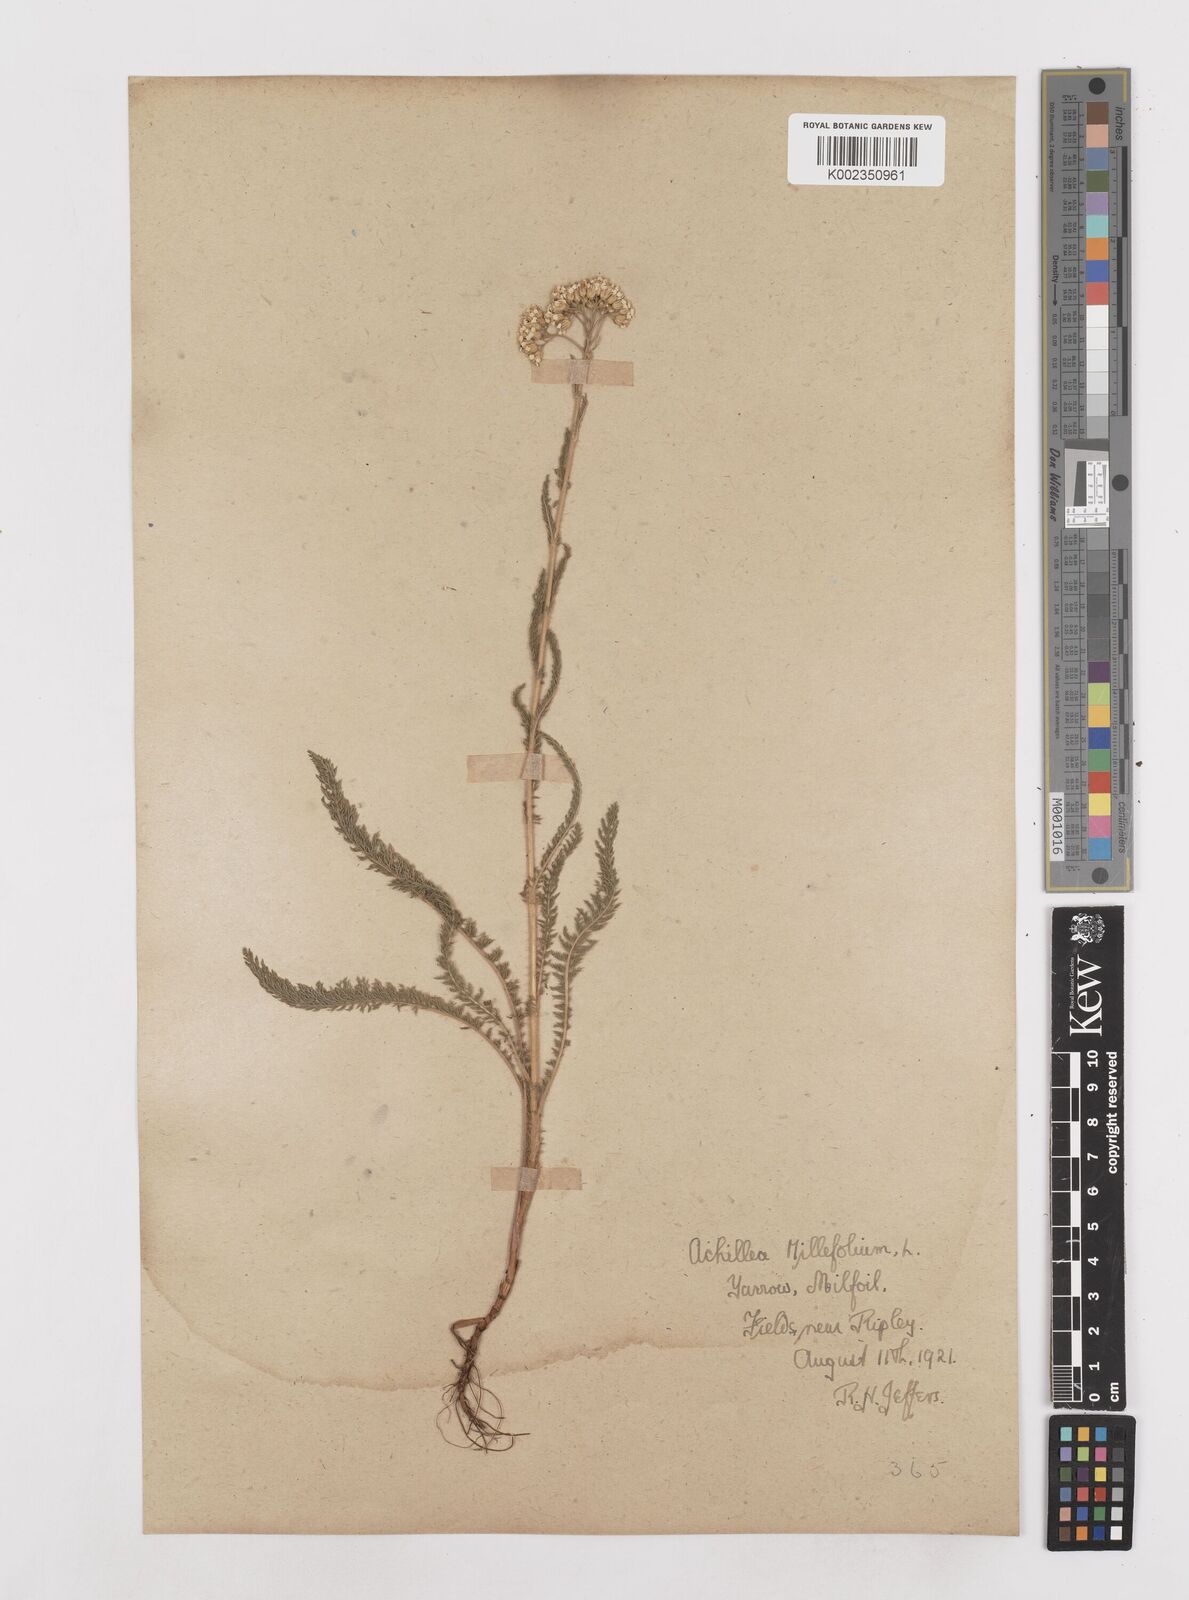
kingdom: Plantae
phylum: Tracheophyta
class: Magnoliopsida
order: Asterales
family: Asteraceae
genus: Achillea
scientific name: Achillea
